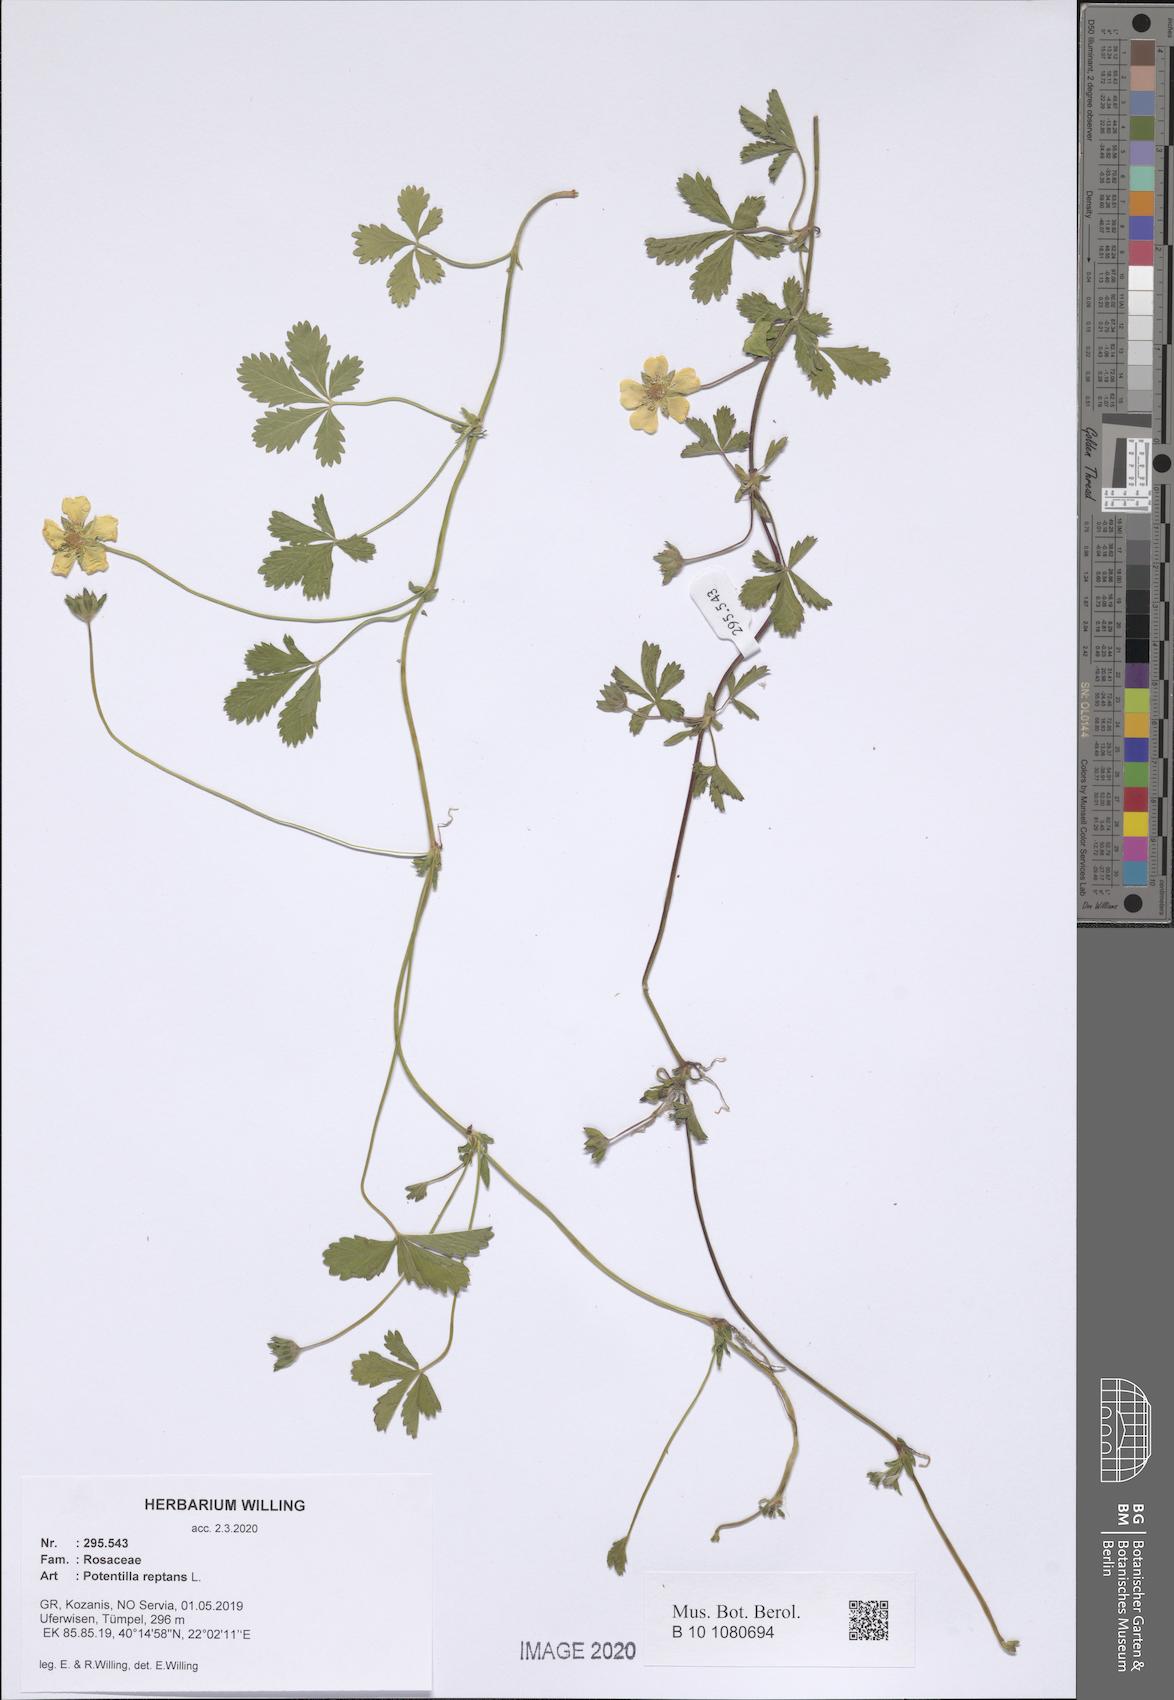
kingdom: Plantae
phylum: Tracheophyta
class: Magnoliopsida
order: Rosales
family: Rosaceae
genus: Potentilla
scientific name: Potentilla reptans
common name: Creeping cinquefoil
